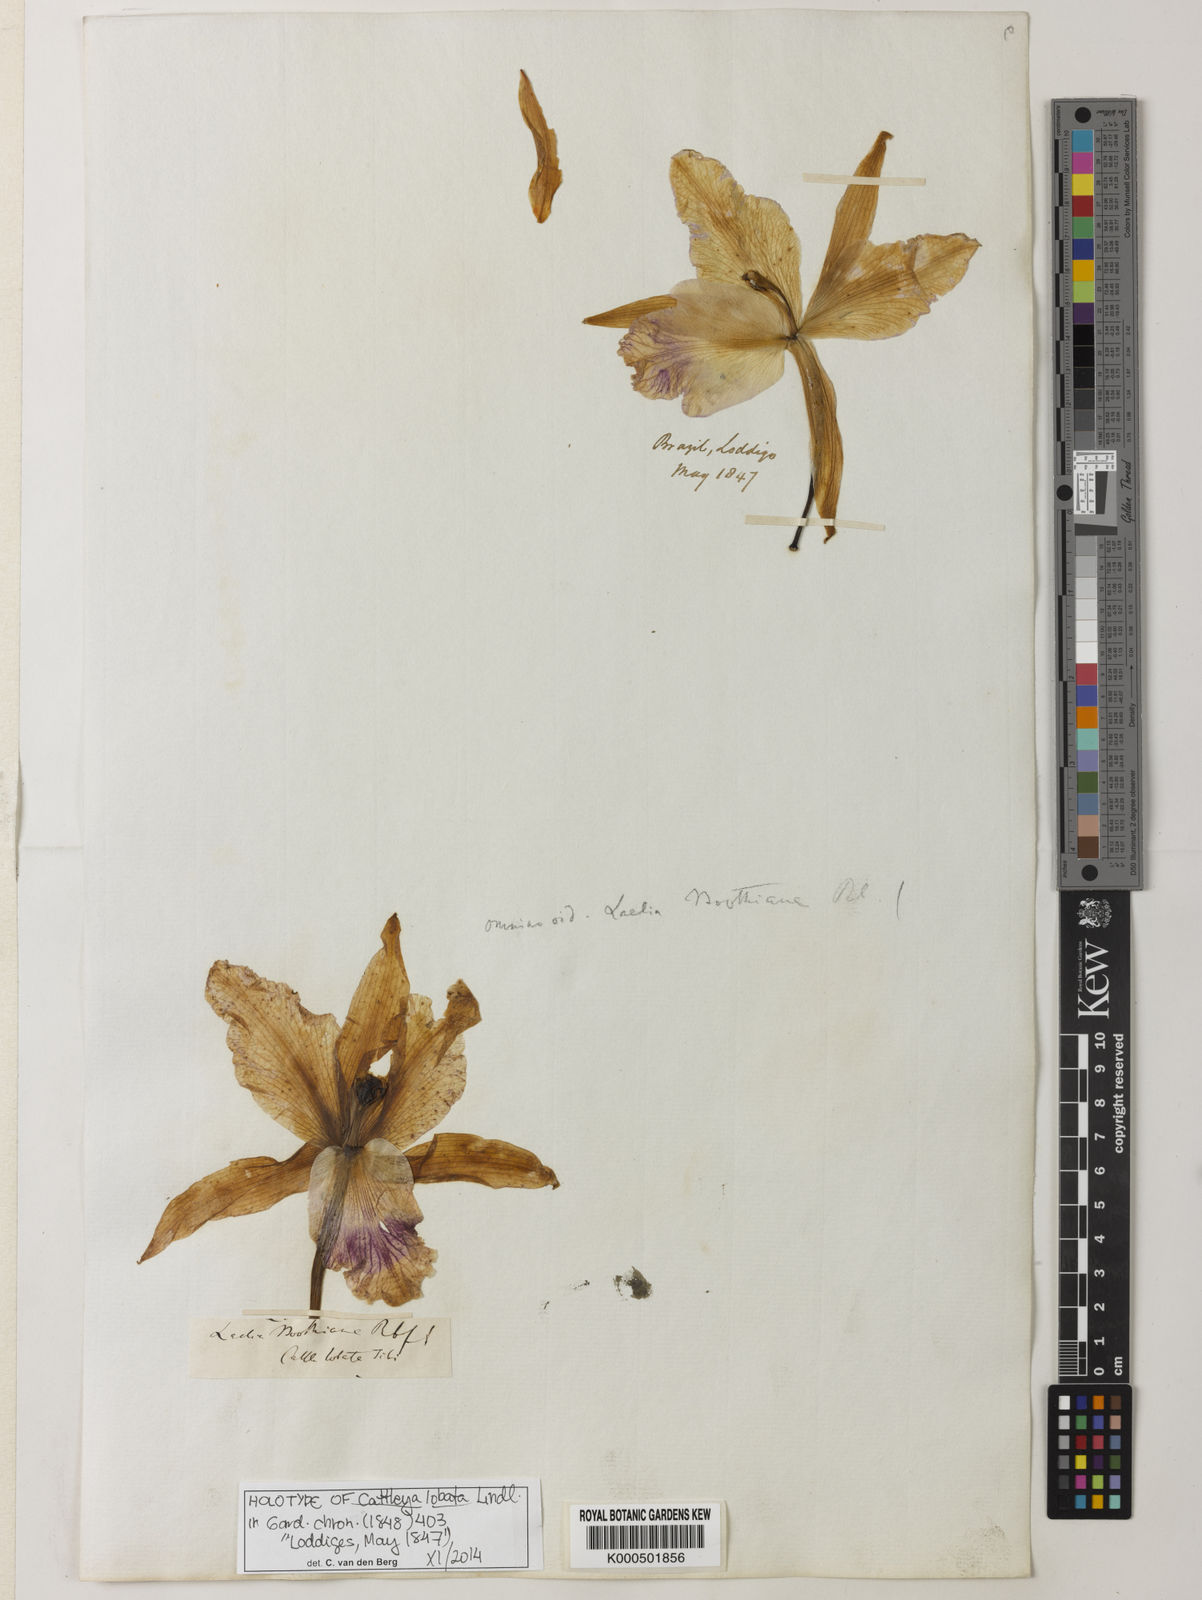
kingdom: Plantae
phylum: Tracheophyta
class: Liliopsida
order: Asparagales
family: Orchidaceae
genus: Cattleya
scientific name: Cattleya lobata
